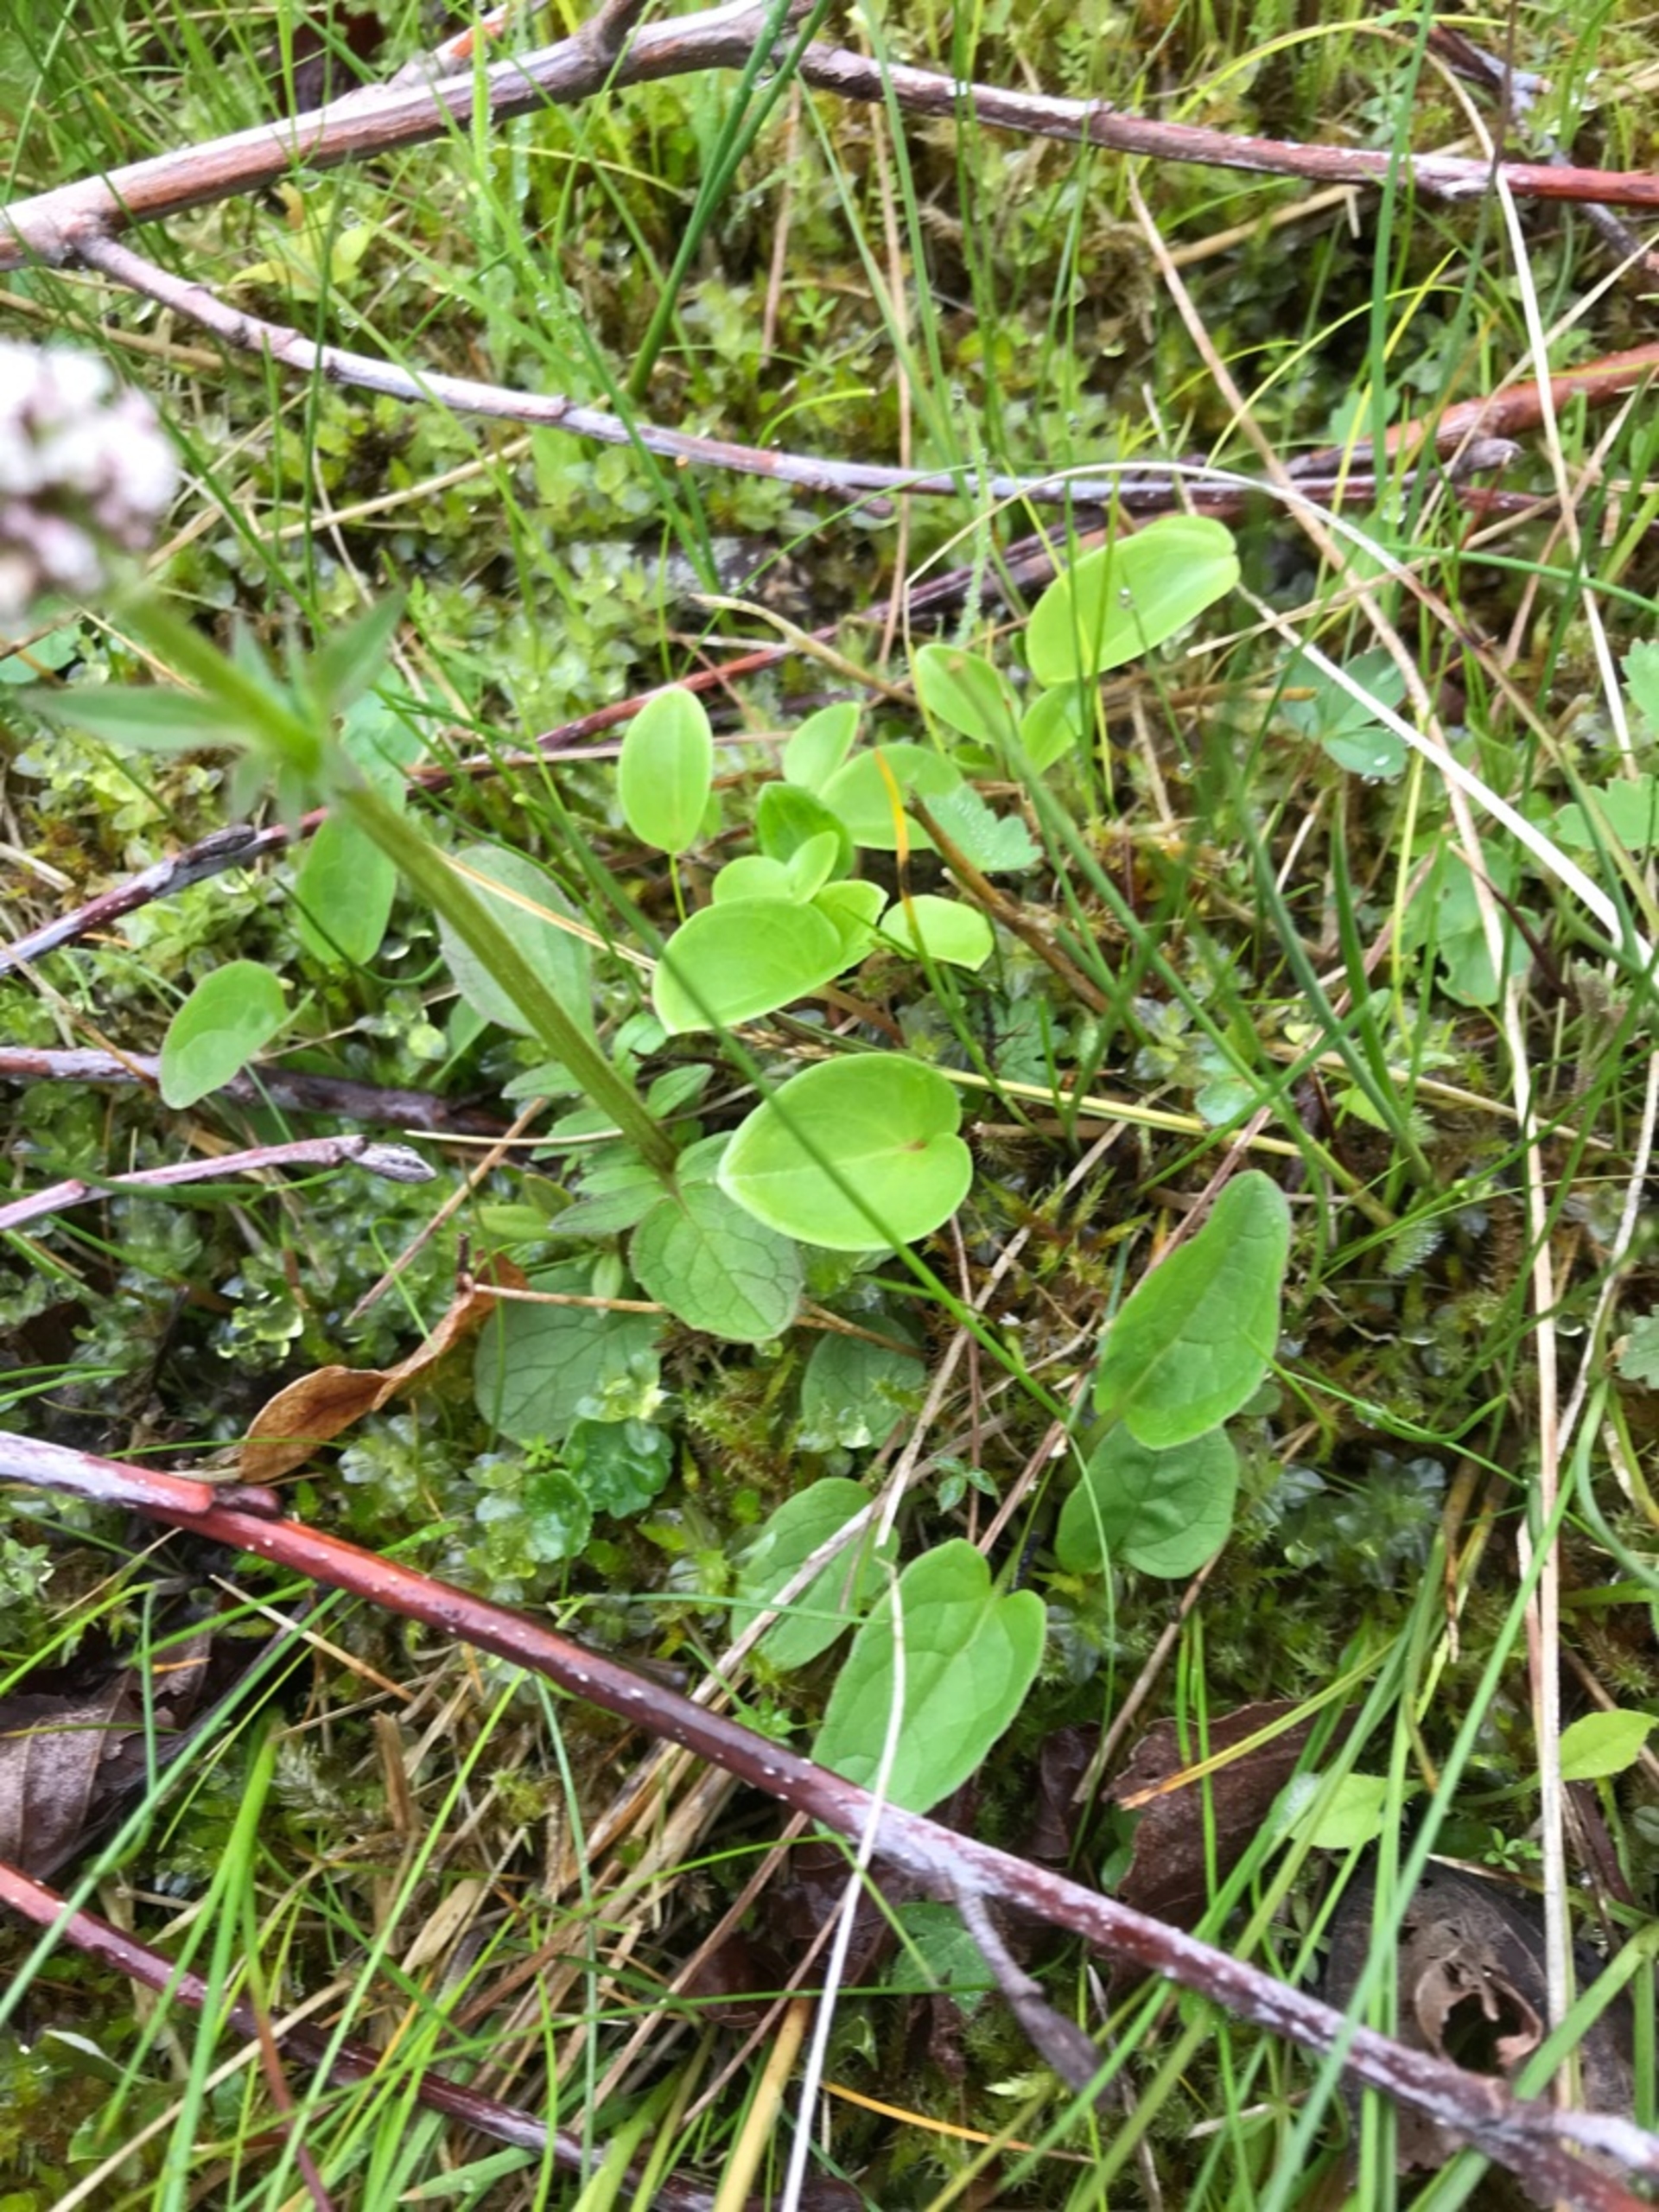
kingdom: Plantae
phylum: Tracheophyta
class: Magnoliopsida
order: Celastrales
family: Parnassiaceae
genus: Parnassia
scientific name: Parnassia palustris
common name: Leverurt
